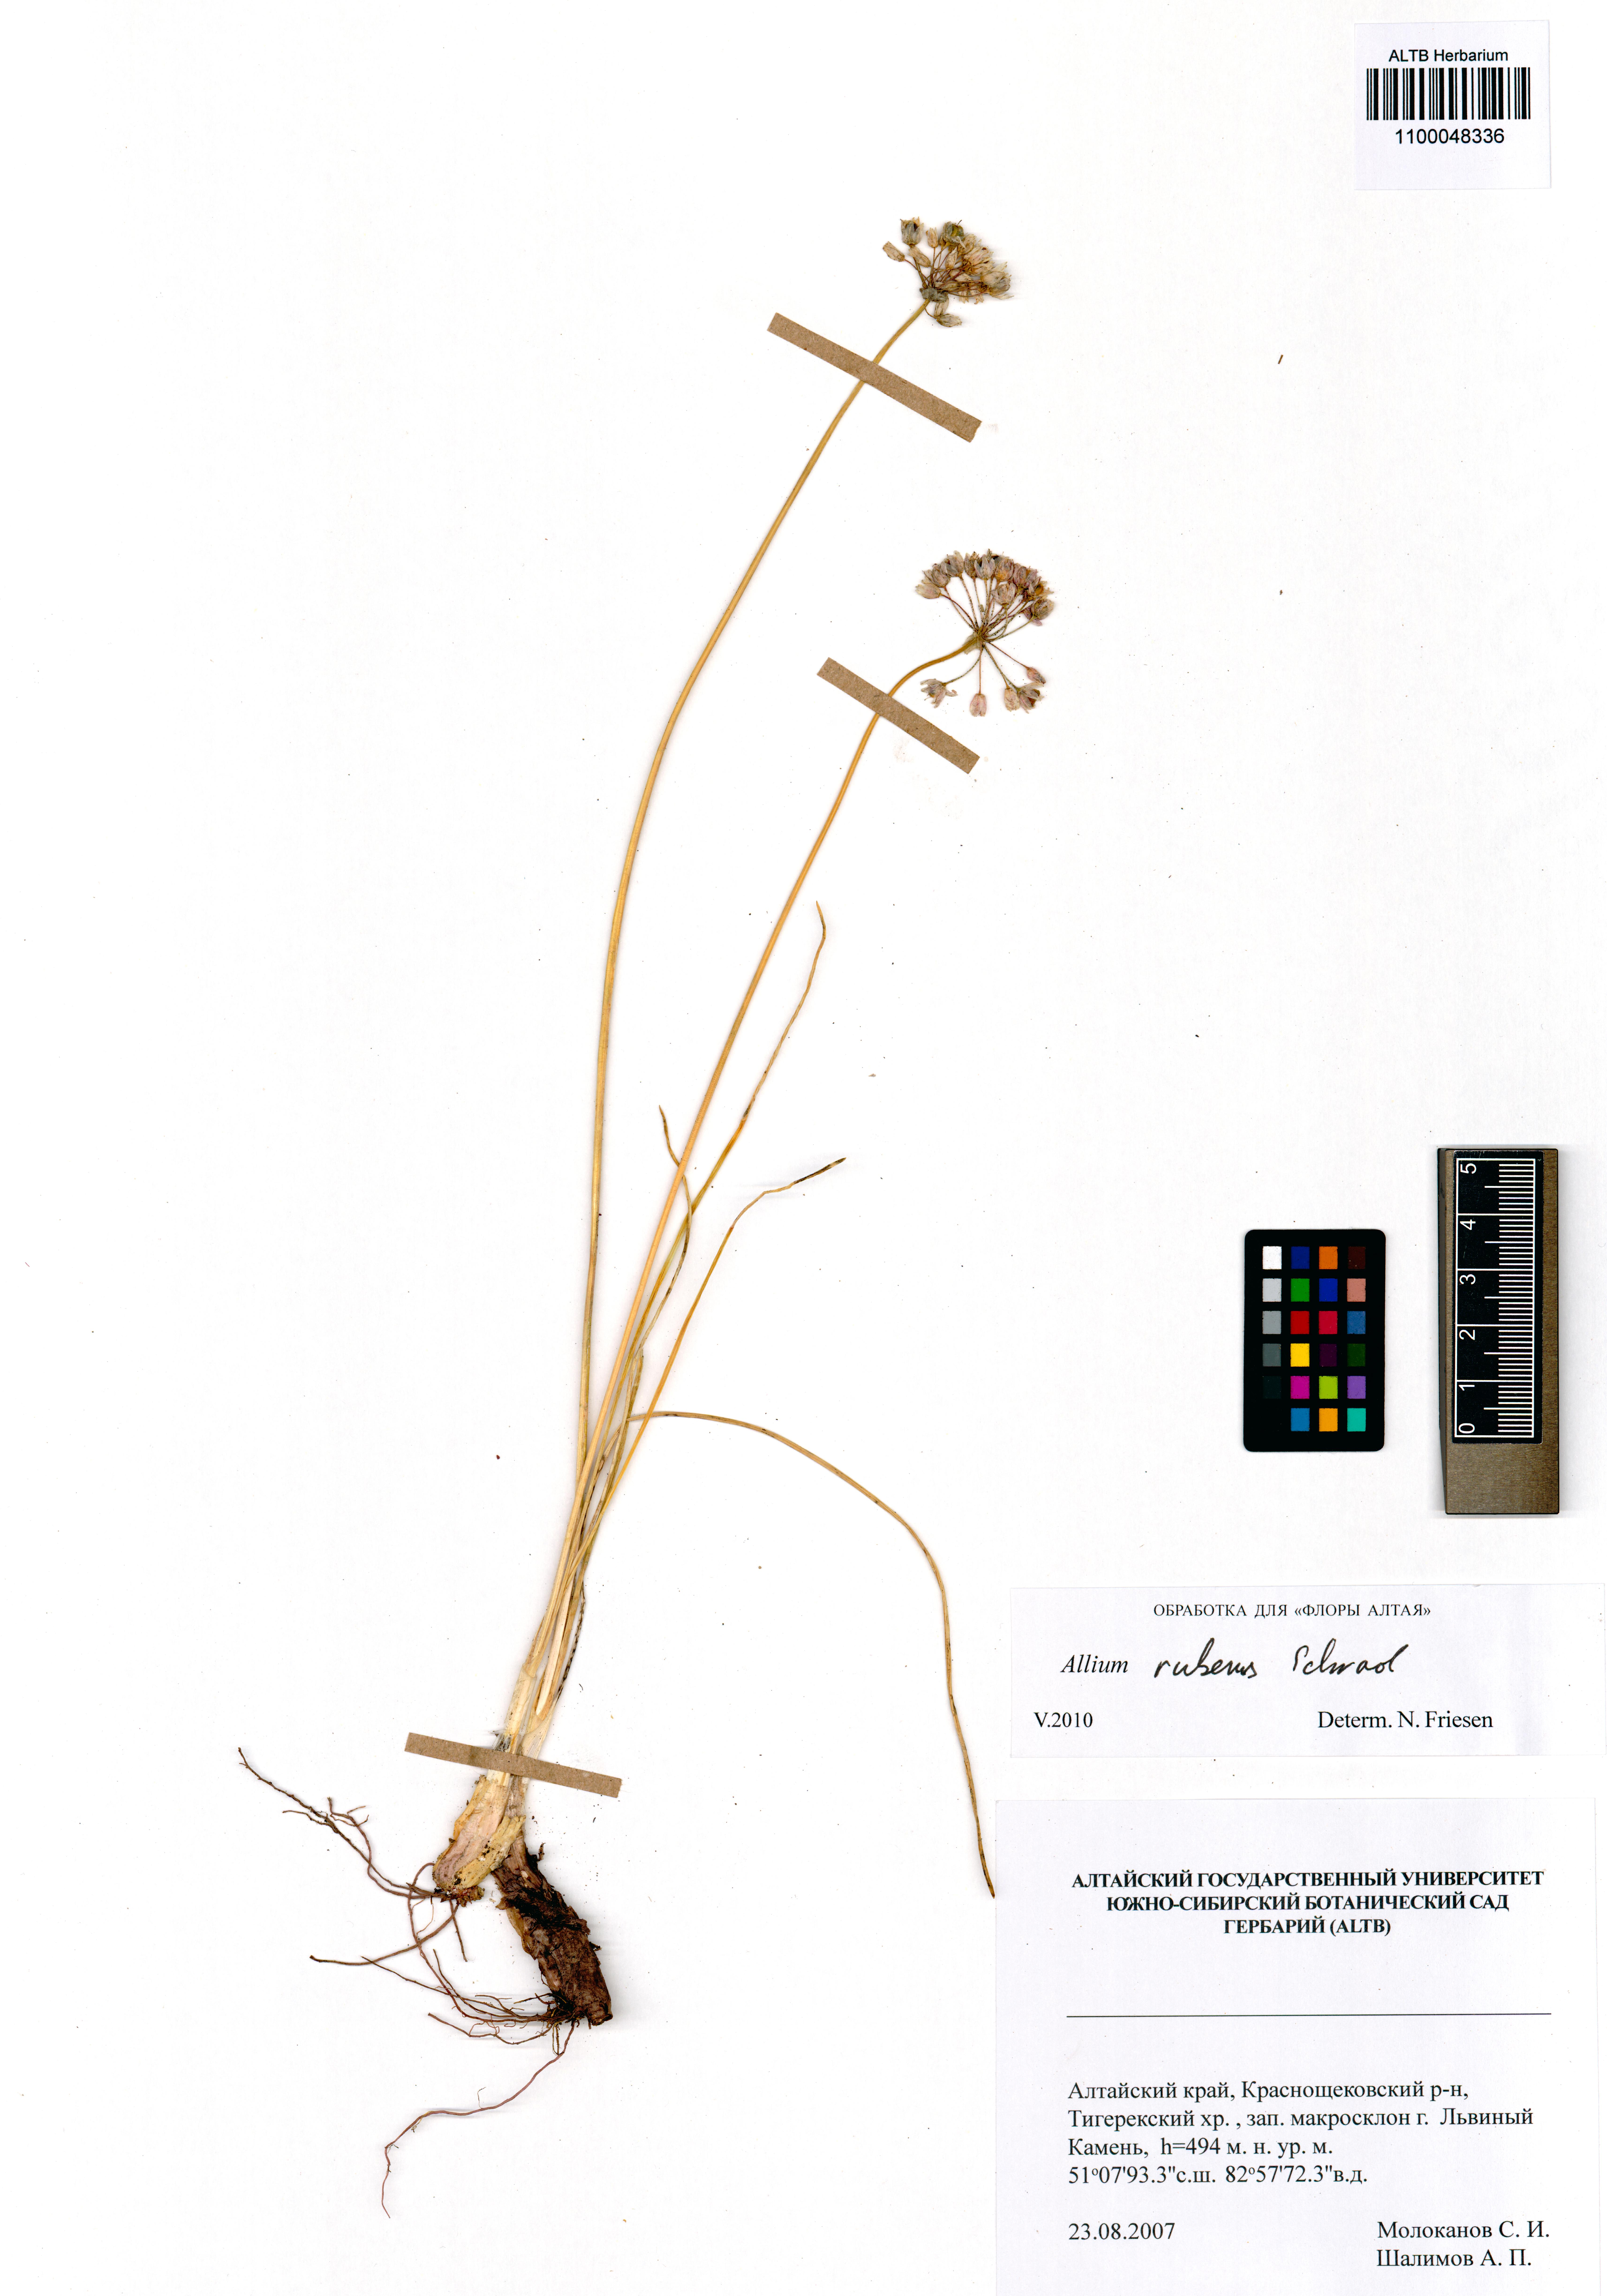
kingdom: Plantae
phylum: Tracheophyta
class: Liliopsida
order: Asparagales
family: Amaryllidaceae
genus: Allium
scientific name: Allium rubens
